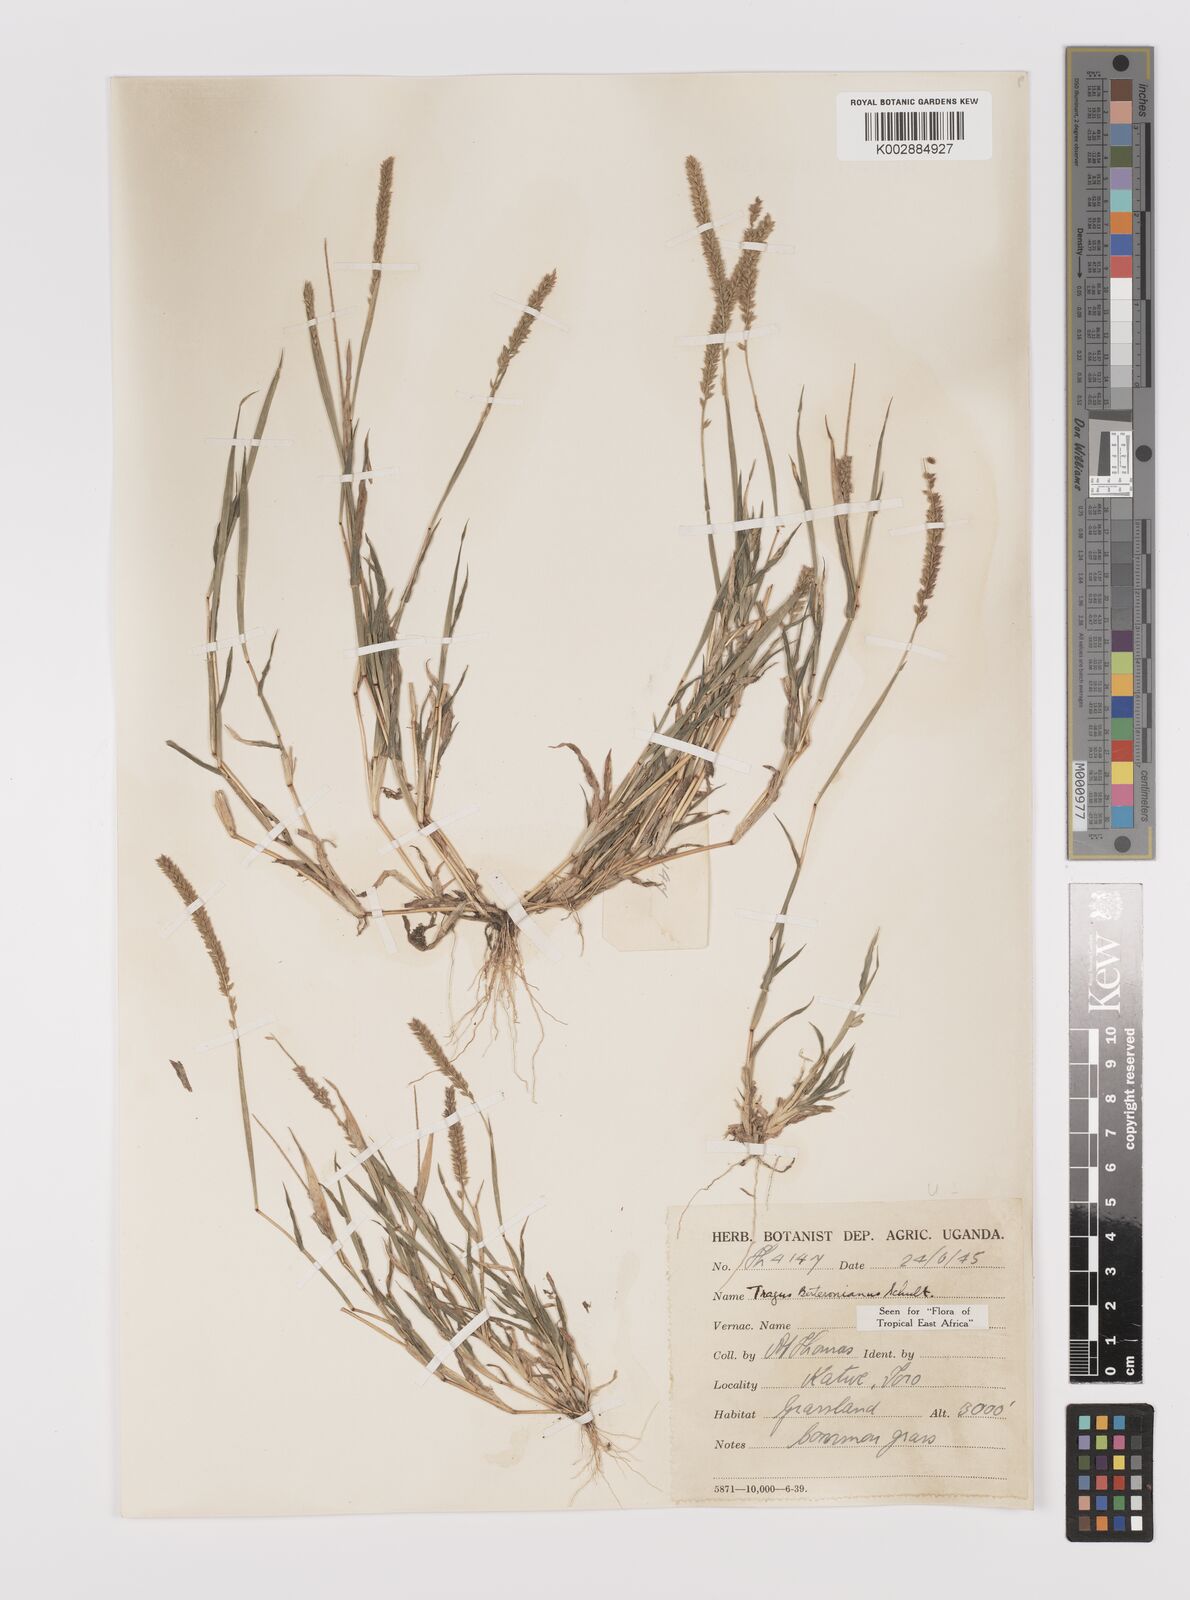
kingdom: Plantae
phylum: Tracheophyta
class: Liliopsida
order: Poales
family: Poaceae
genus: Tragus
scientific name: Tragus berteronianus
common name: African bur-grass
